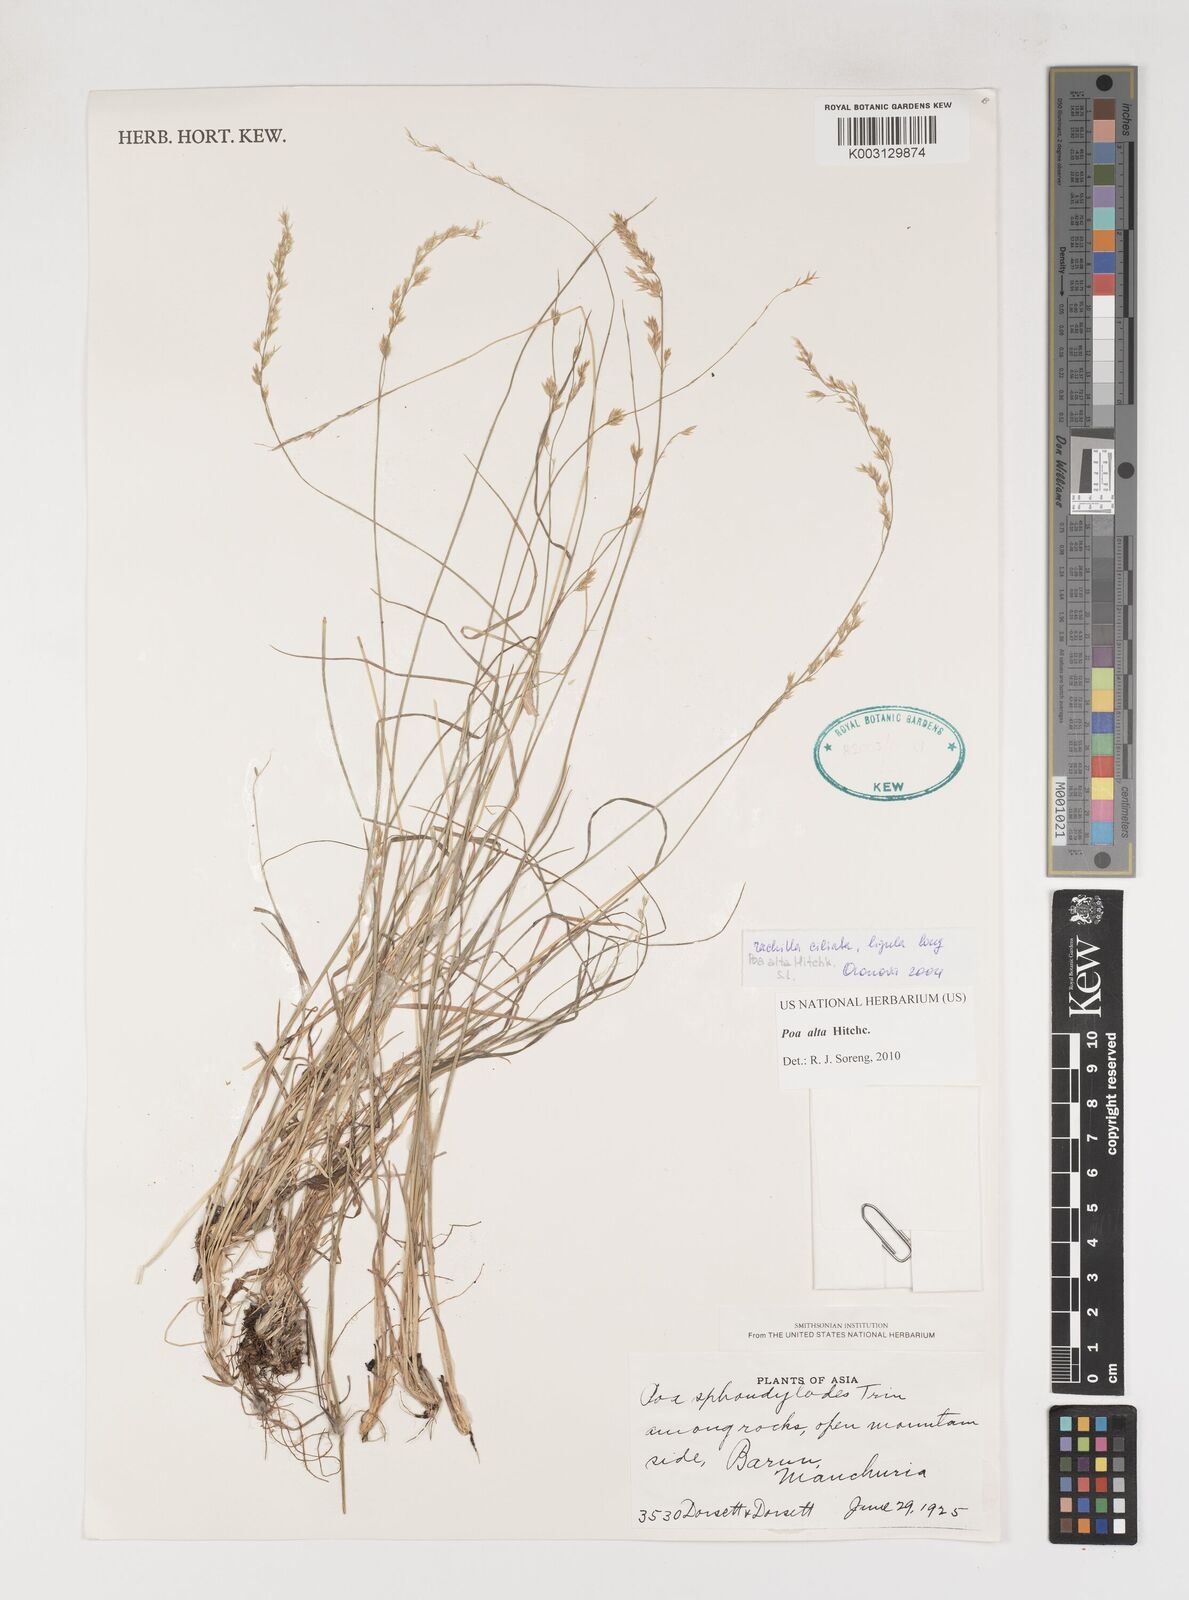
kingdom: Plantae
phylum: Tracheophyta
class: Liliopsida
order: Poales
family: Poaceae
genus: Poa
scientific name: Poa alta
